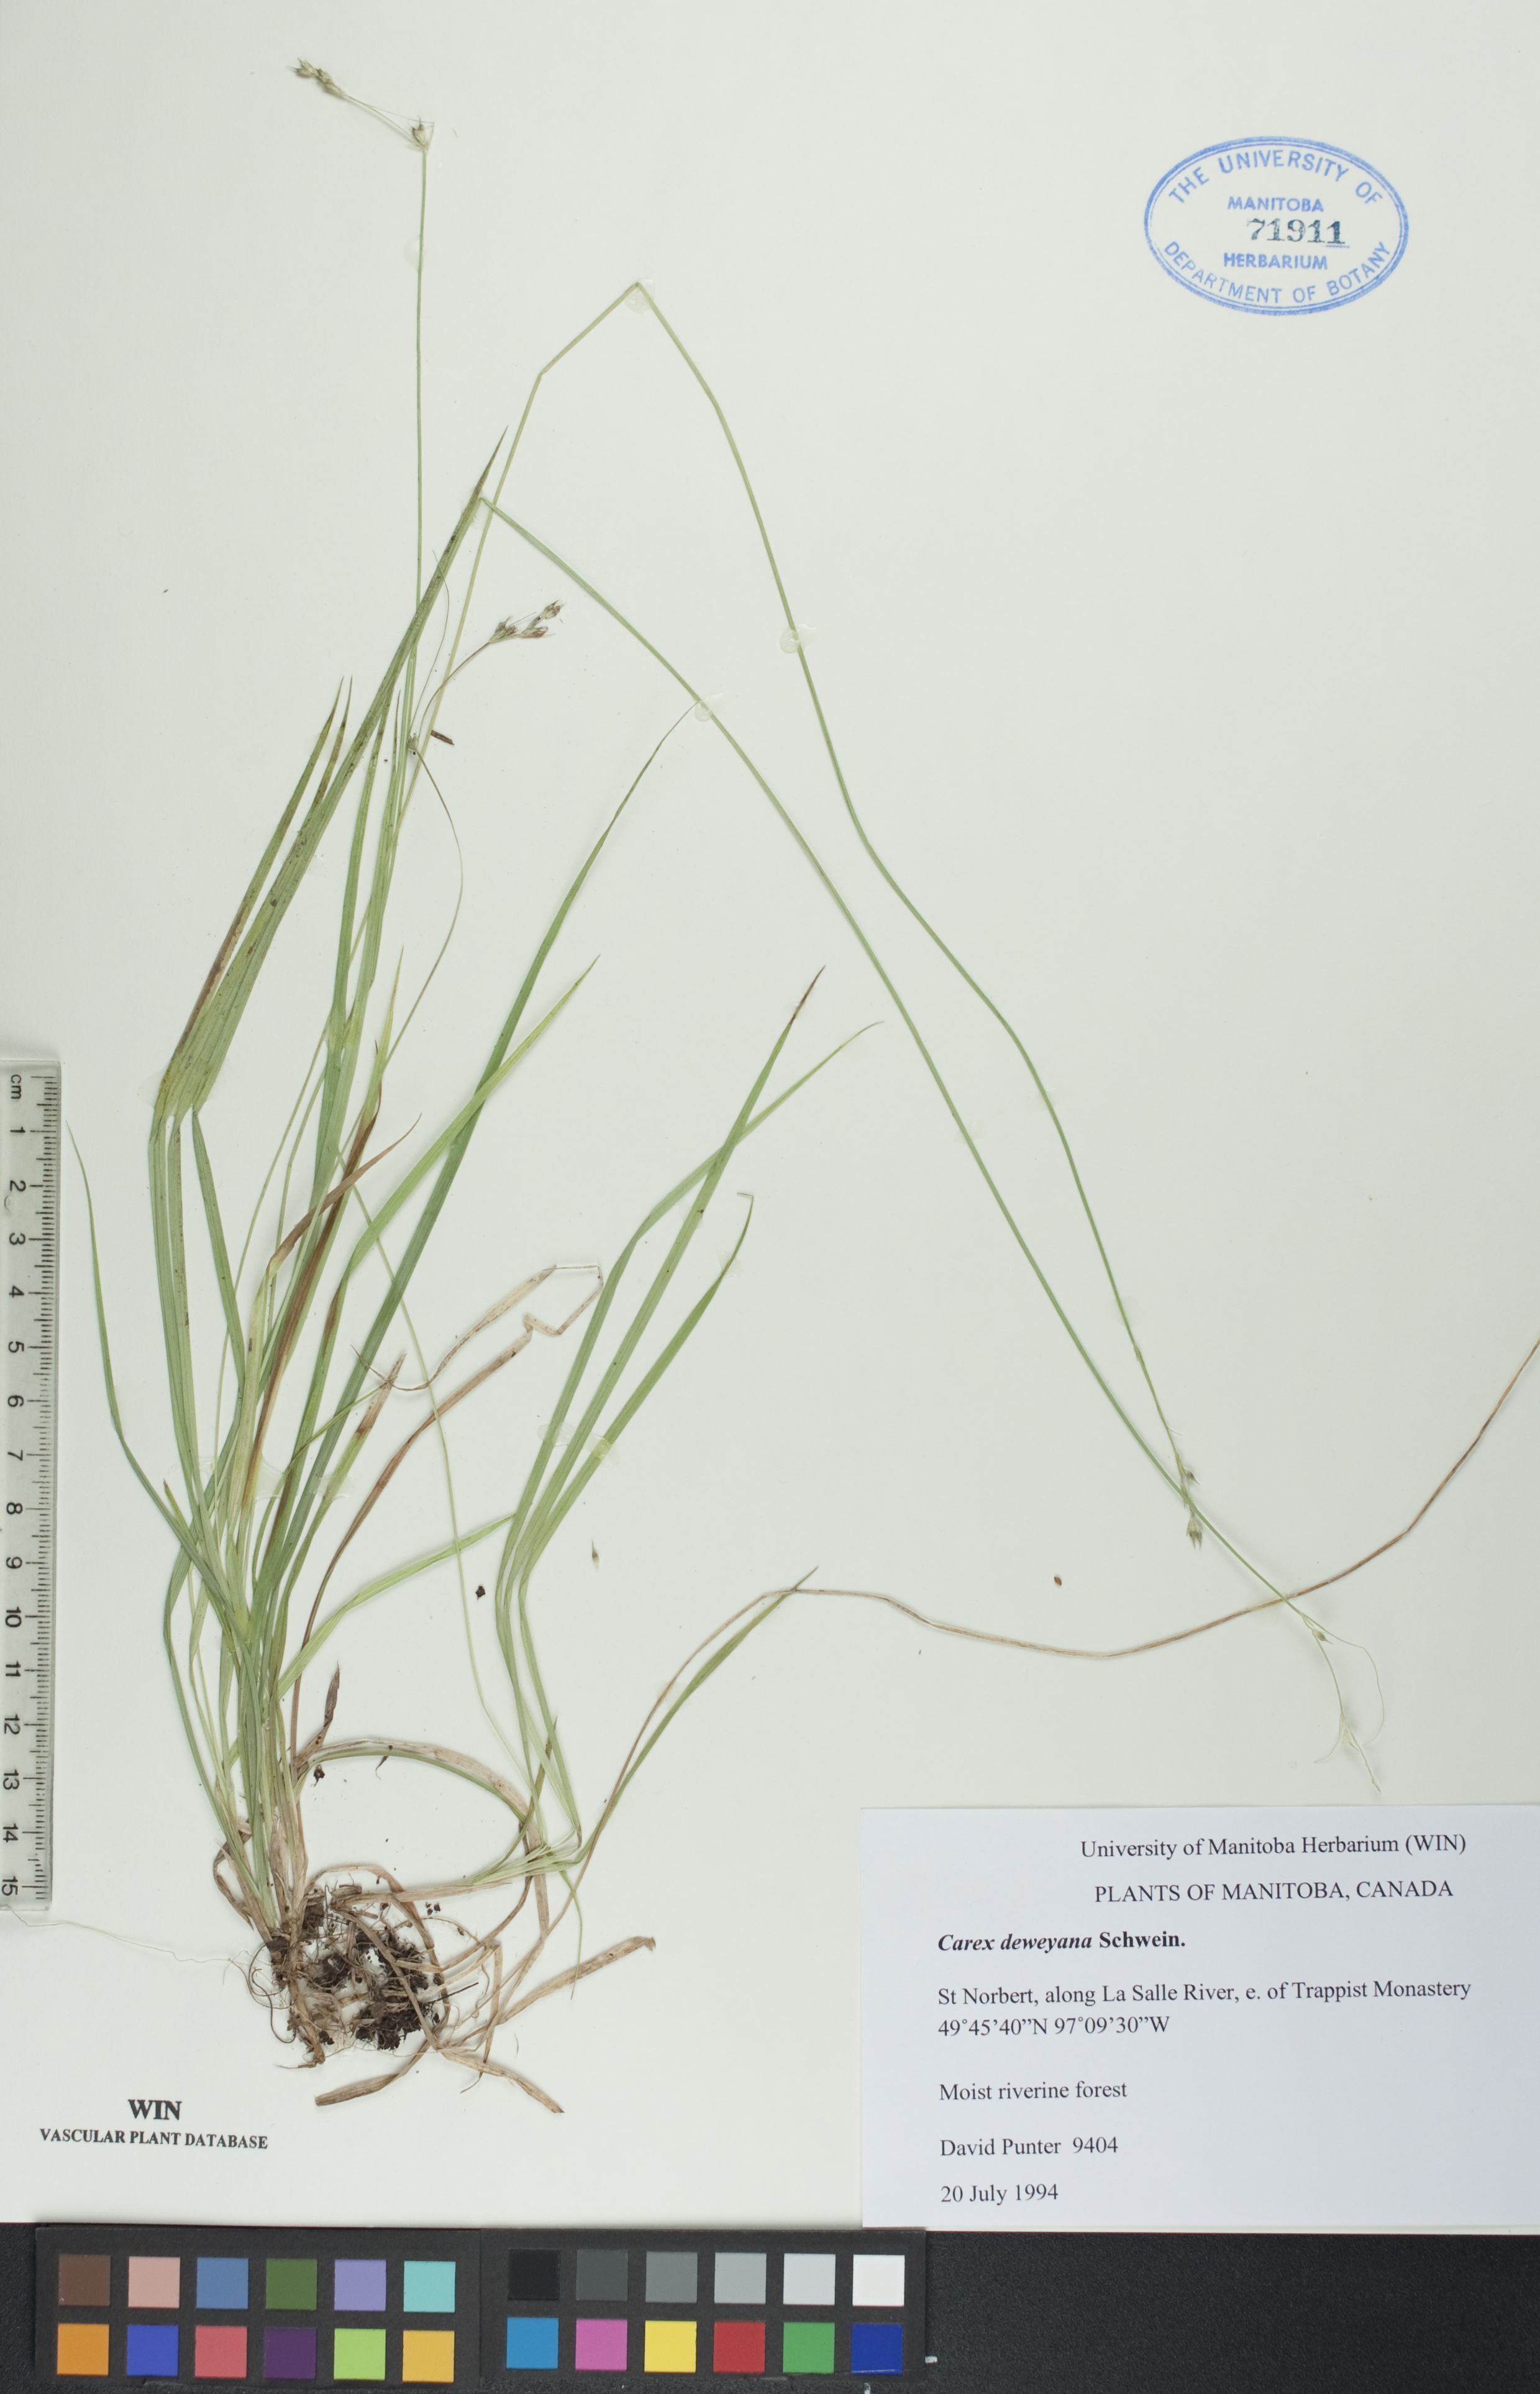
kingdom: Plantae
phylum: Tracheophyta
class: Liliopsida
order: Poales
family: Cyperaceae
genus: Carex
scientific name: Carex deweyana
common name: Dewey's sedge
